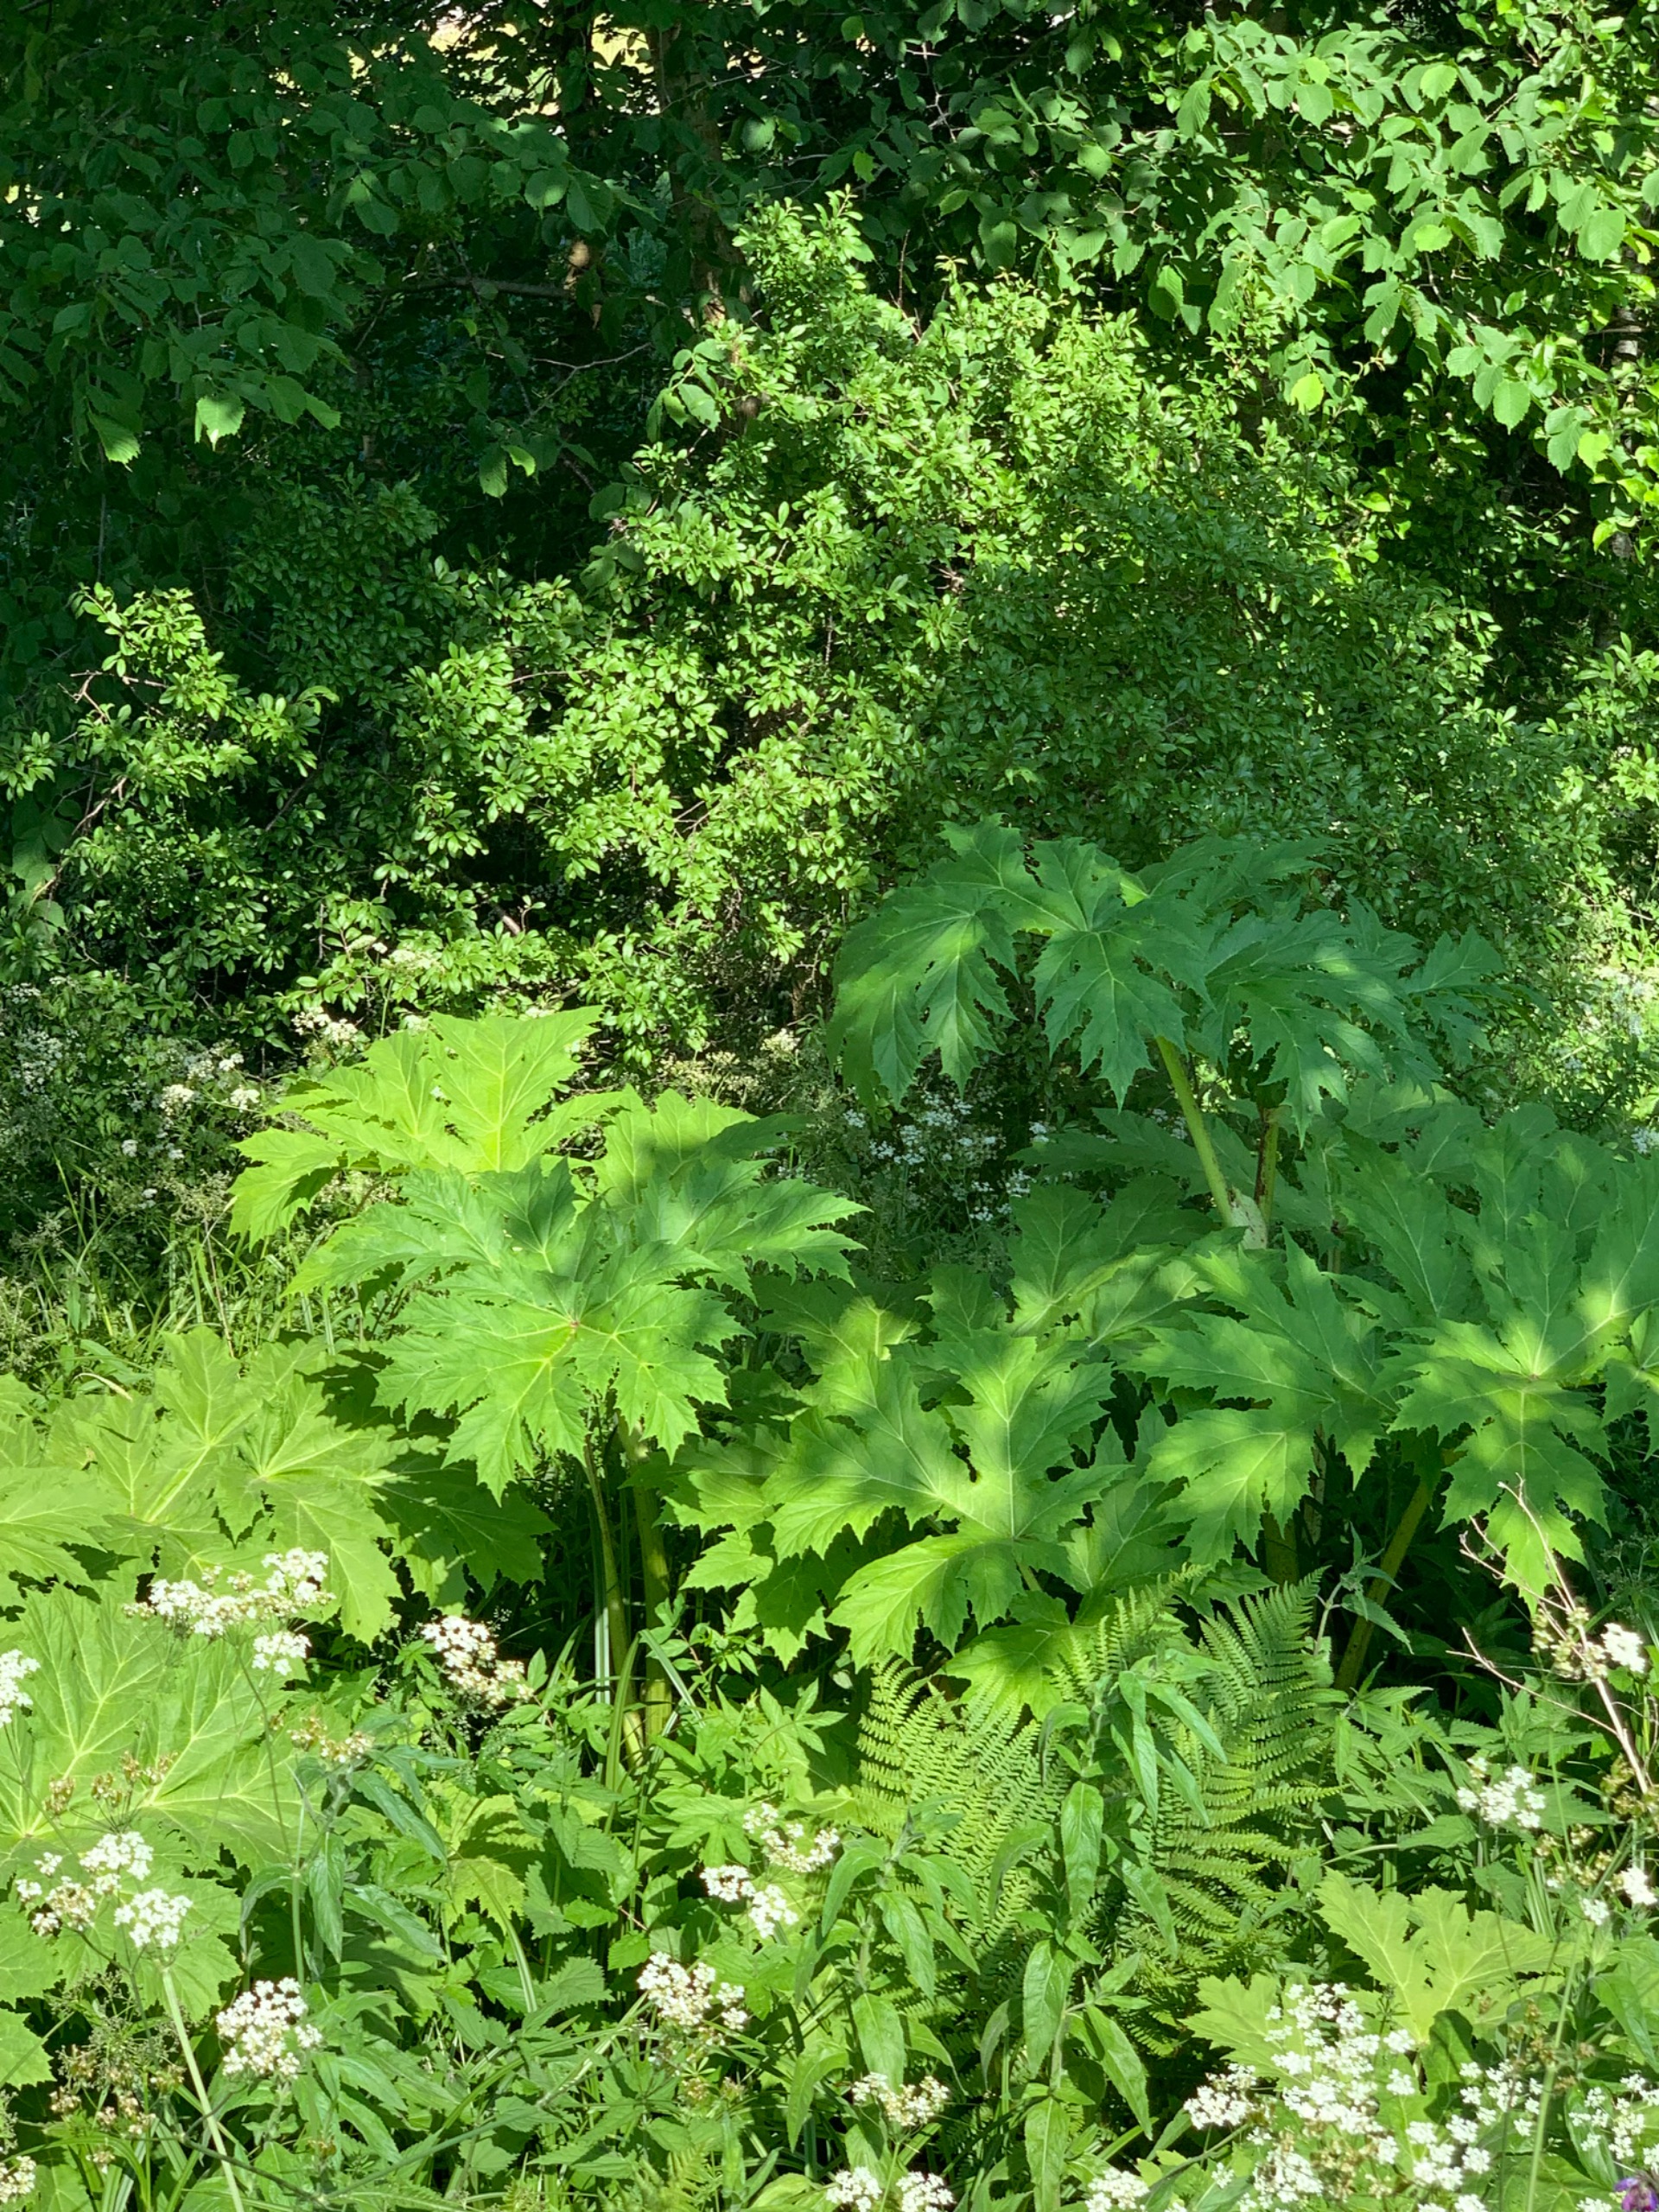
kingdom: Plantae
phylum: Tracheophyta
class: Magnoliopsida
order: Apiales
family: Apiaceae
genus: Heracleum
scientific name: Heracleum mantegazzianum
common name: Kæmpe-bjørneklo
